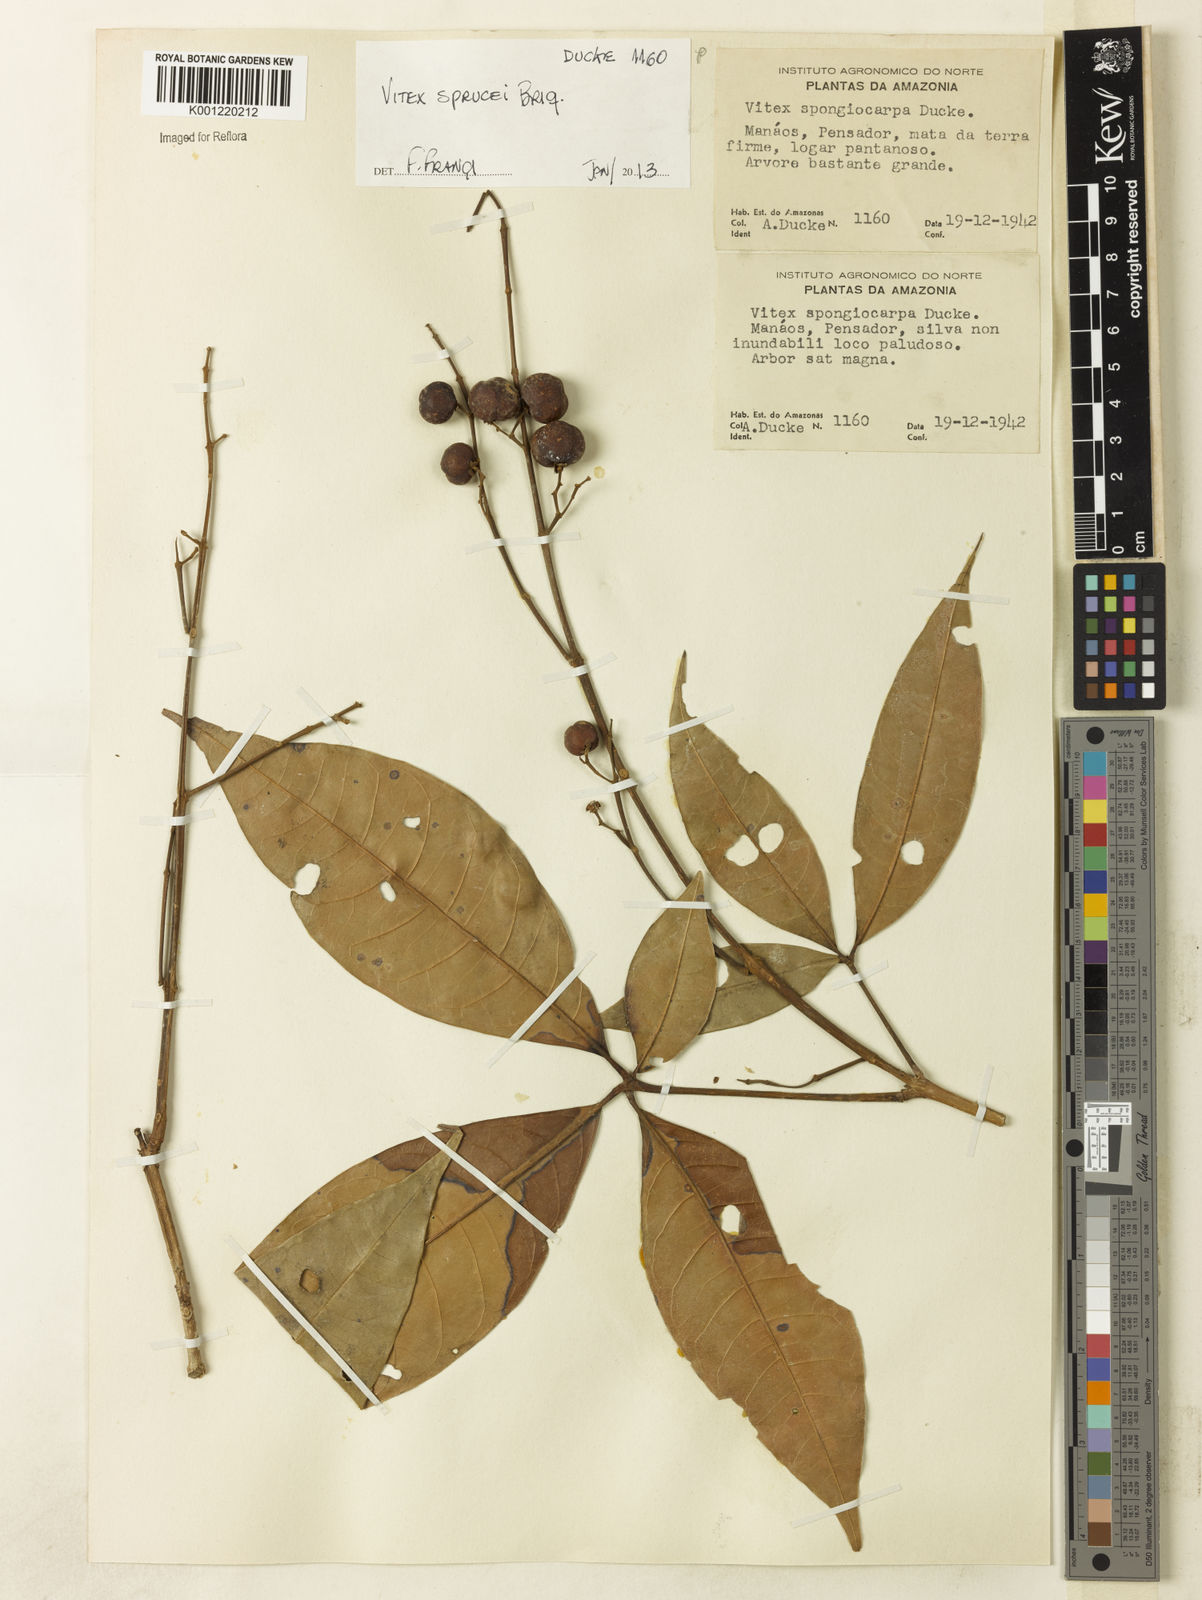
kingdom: Plantae
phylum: Tracheophyta
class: Magnoliopsida
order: Lamiales
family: Lamiaceae
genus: Vitex
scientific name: Vitex sprucei
